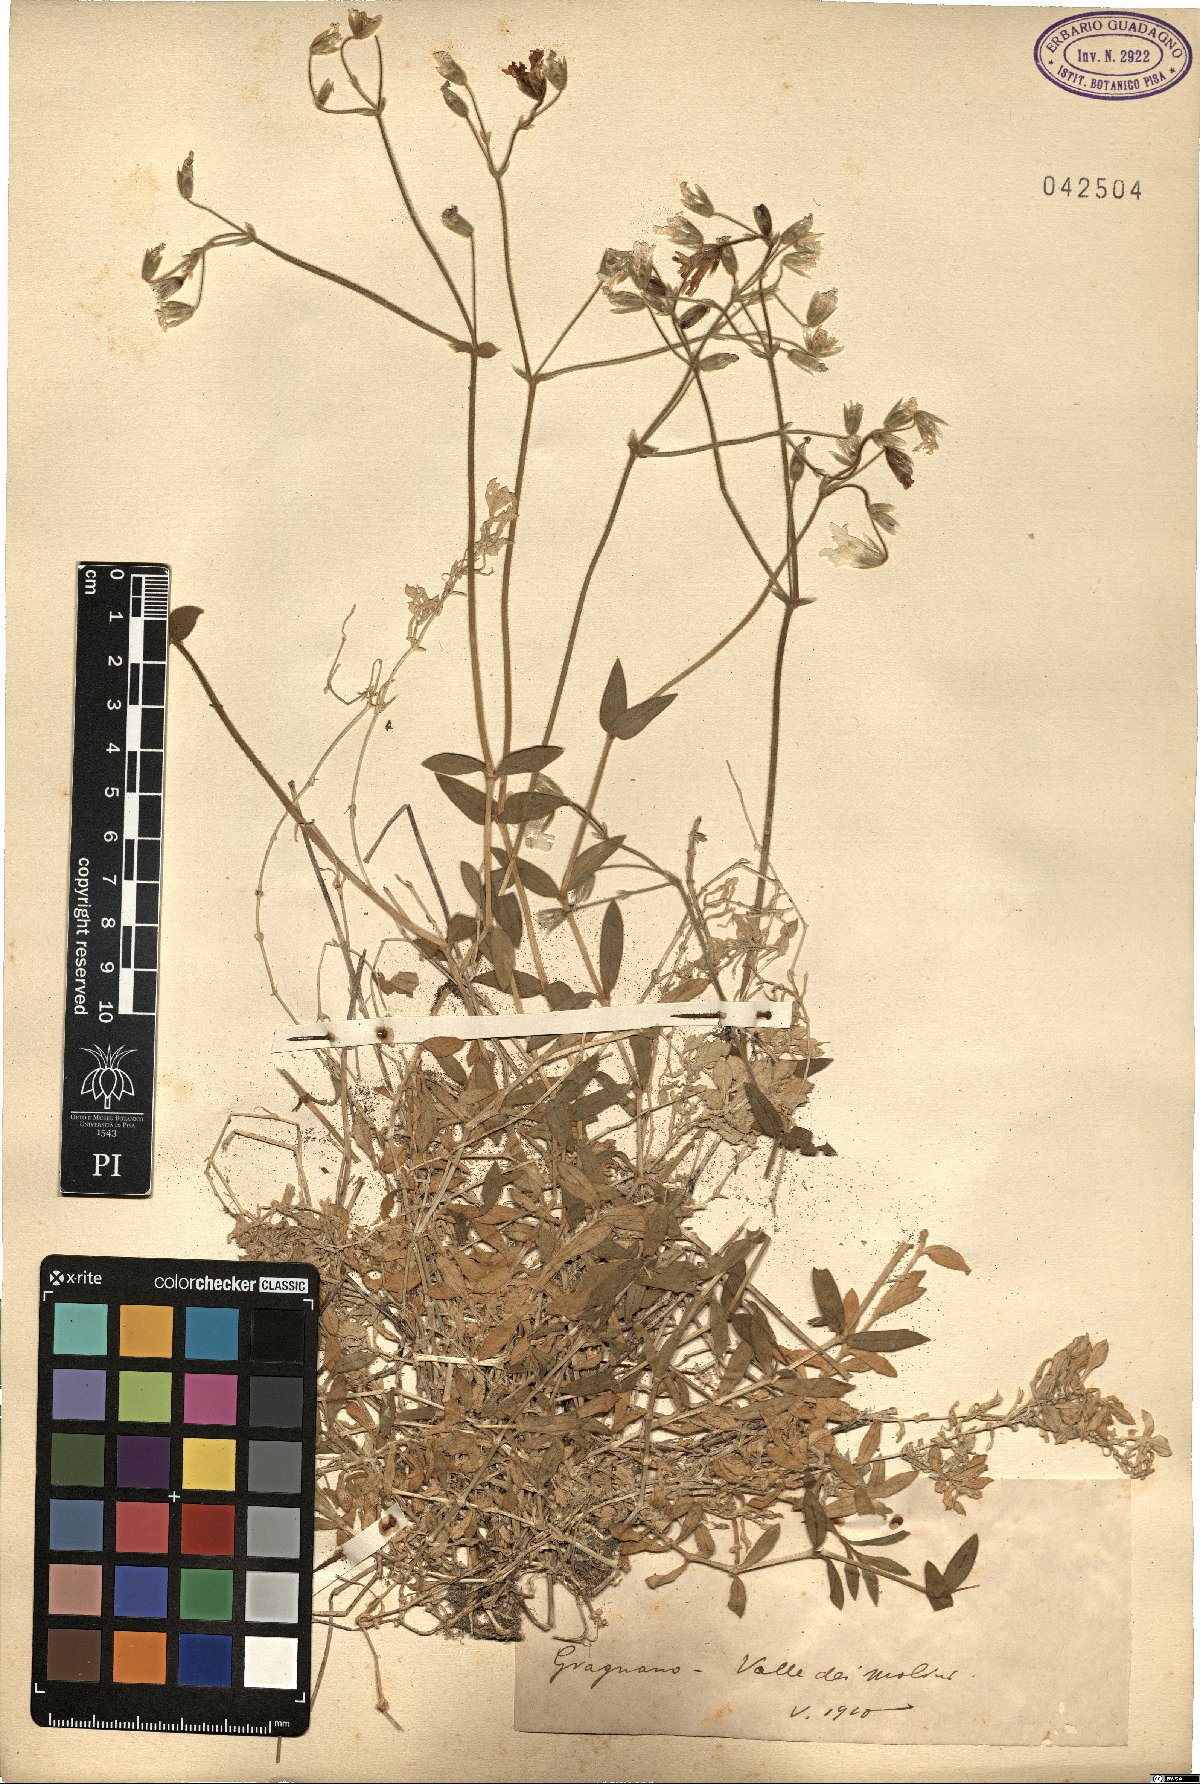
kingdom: Plantae
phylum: Tracheophyta
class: Magnoliopsida
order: Caryophyllales
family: Caryophyllaceae
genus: Cerastium
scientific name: Cerastium
